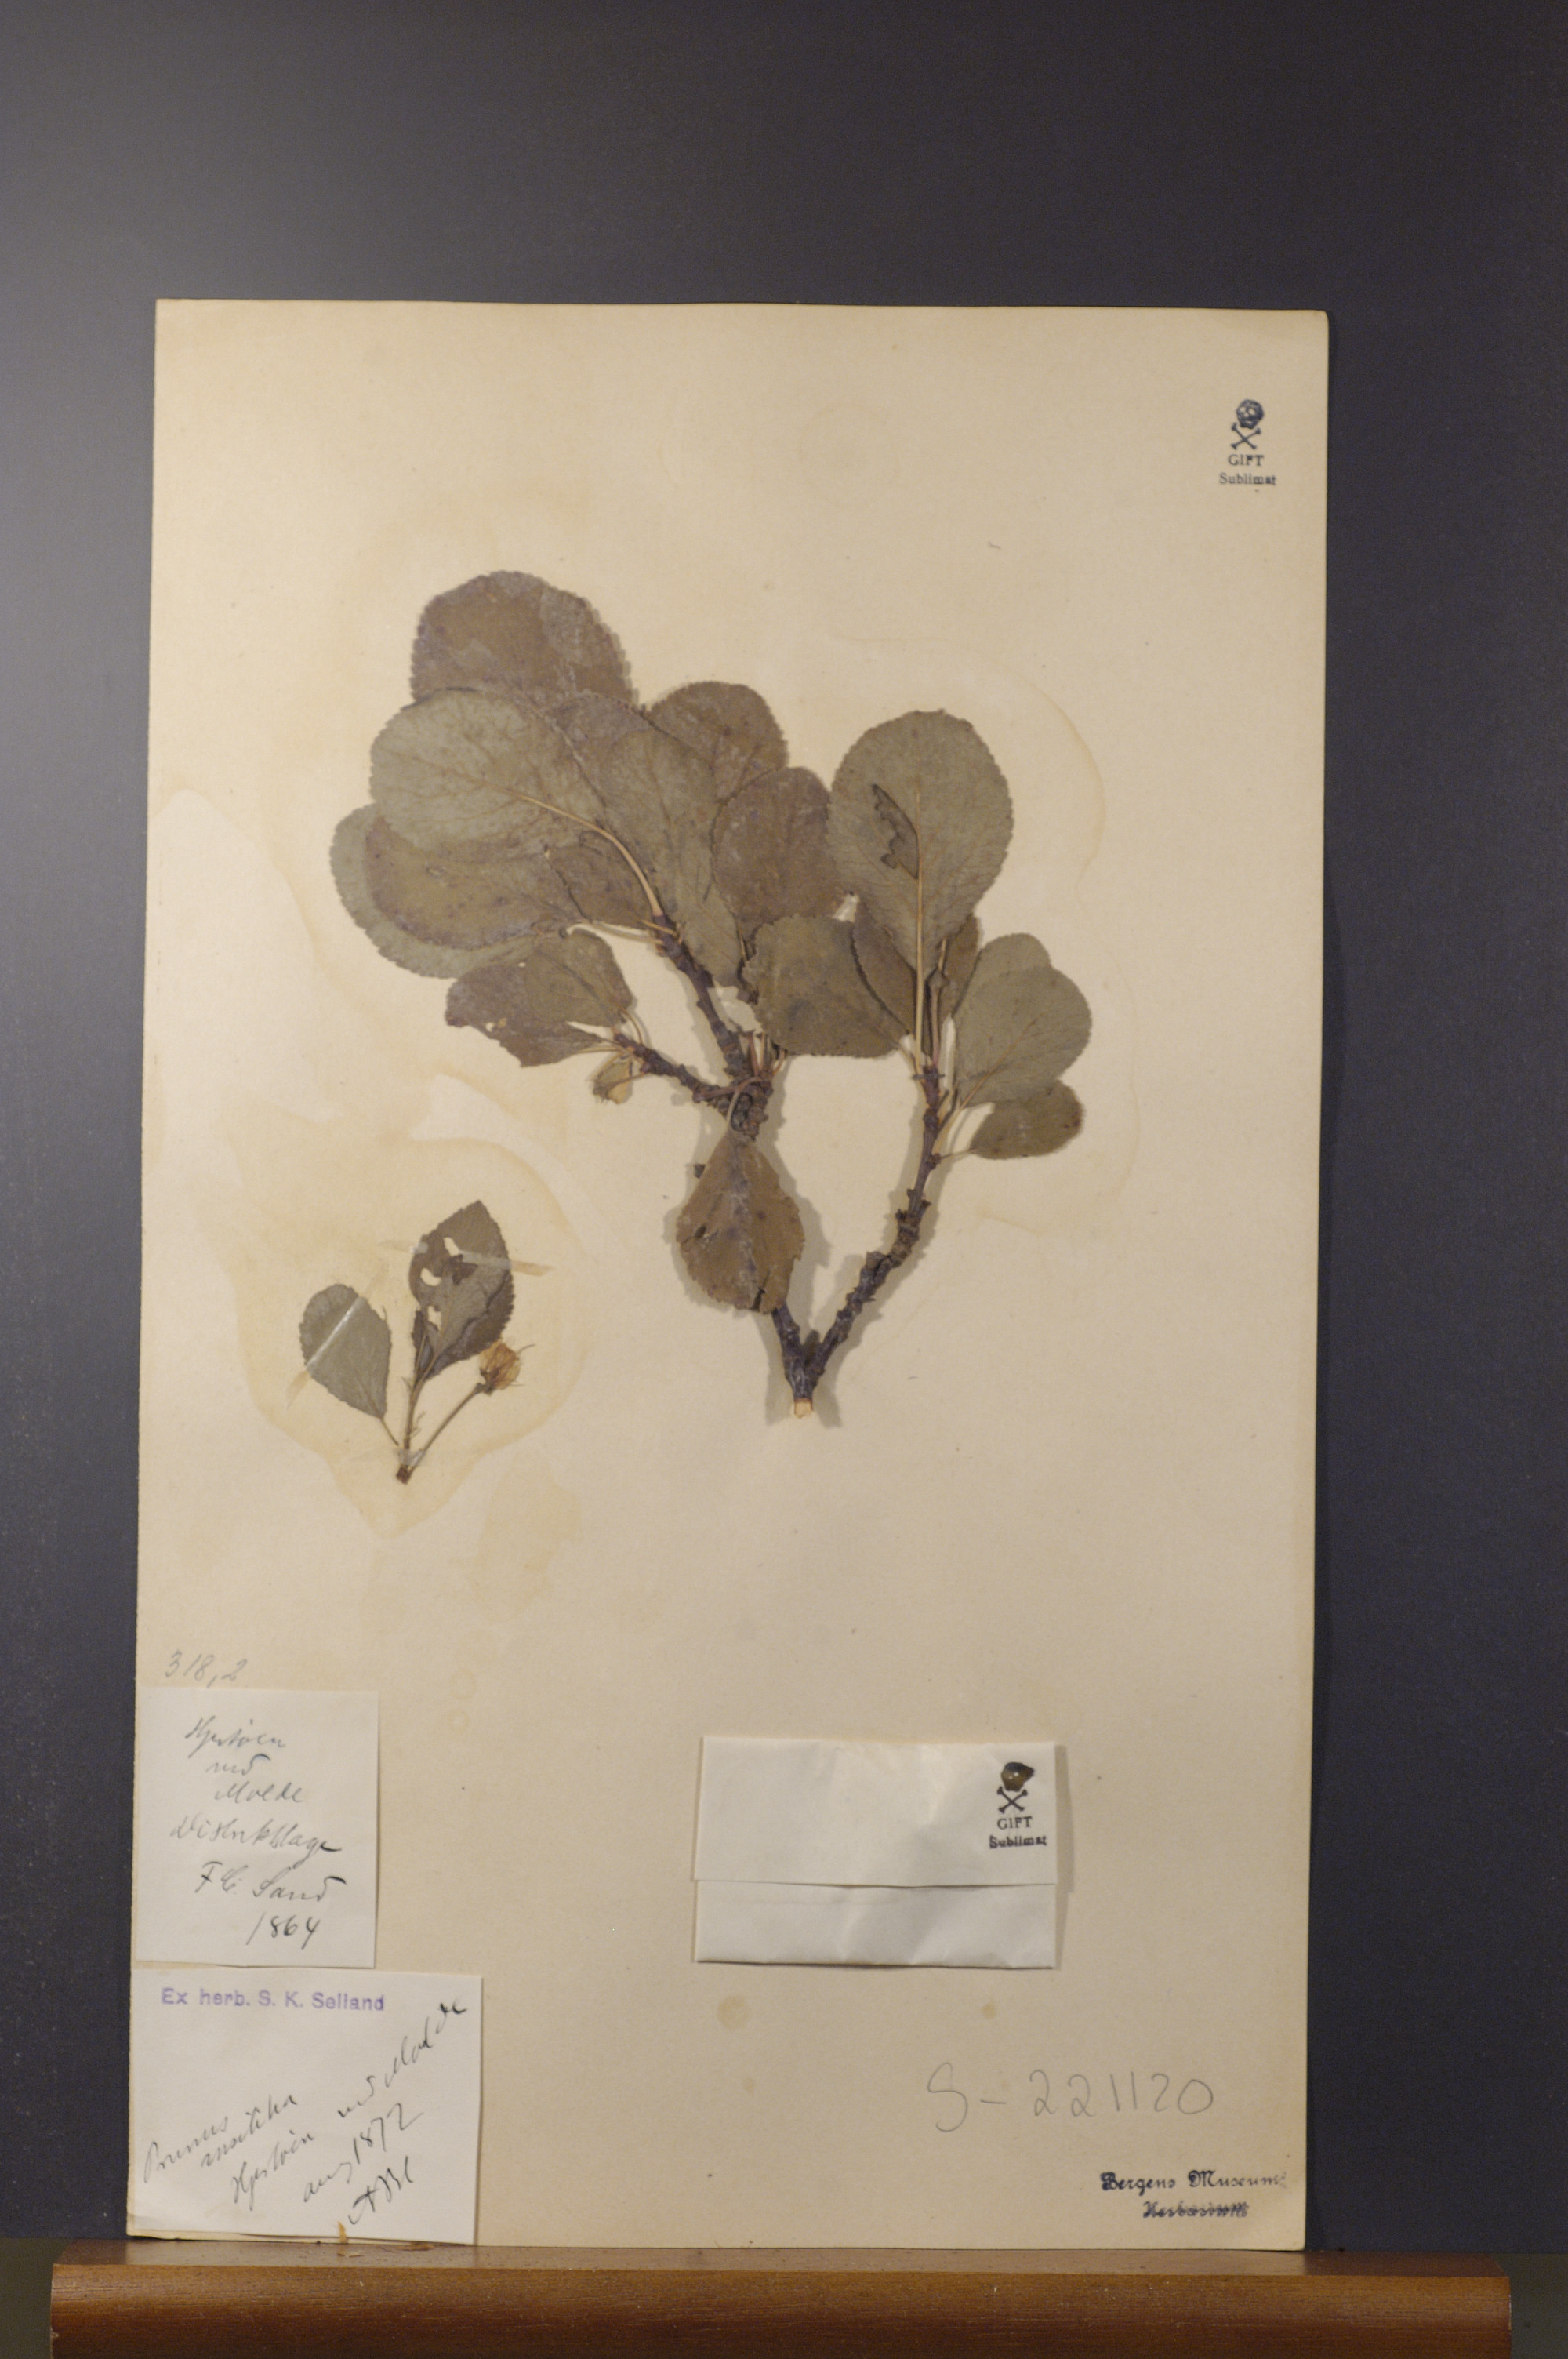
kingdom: Plantae
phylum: Tracheophyta
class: Magnoliopsida
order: Rosales
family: Rosaceae
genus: Prunus
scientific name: Prunus domestica
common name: Wild plum
